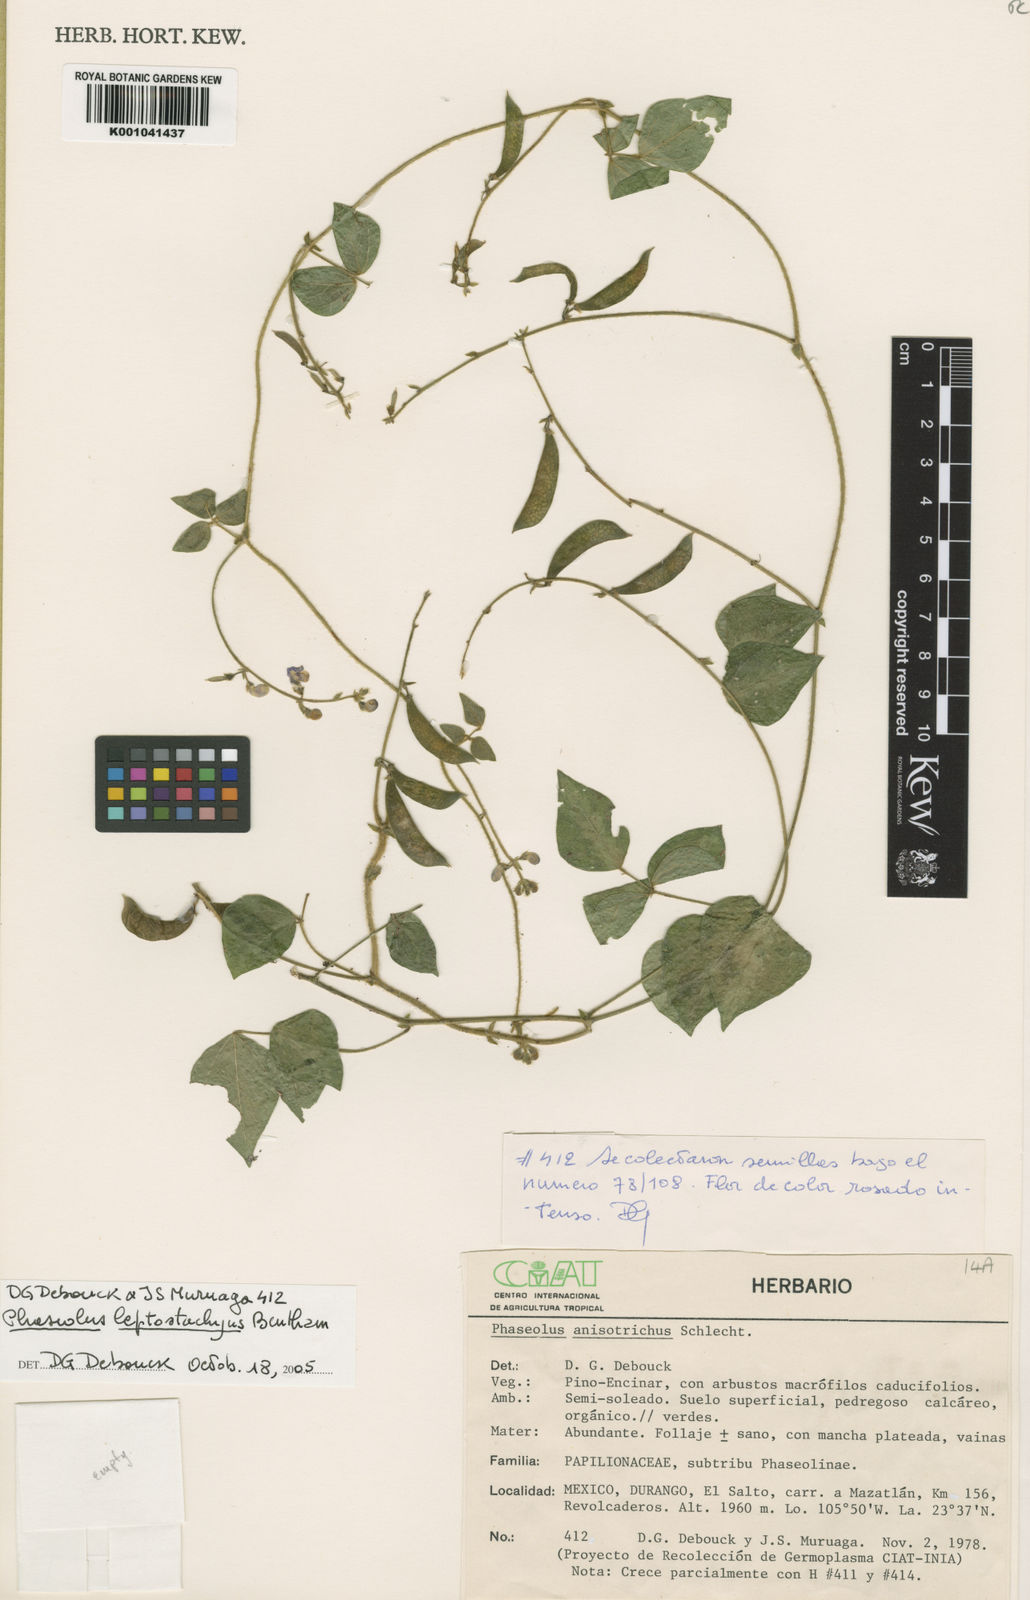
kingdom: Plantae
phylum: Tracheophyta
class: Magnoliopsida
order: Fabales
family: Fabaceae
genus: Phaseolus
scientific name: Phaseolus
